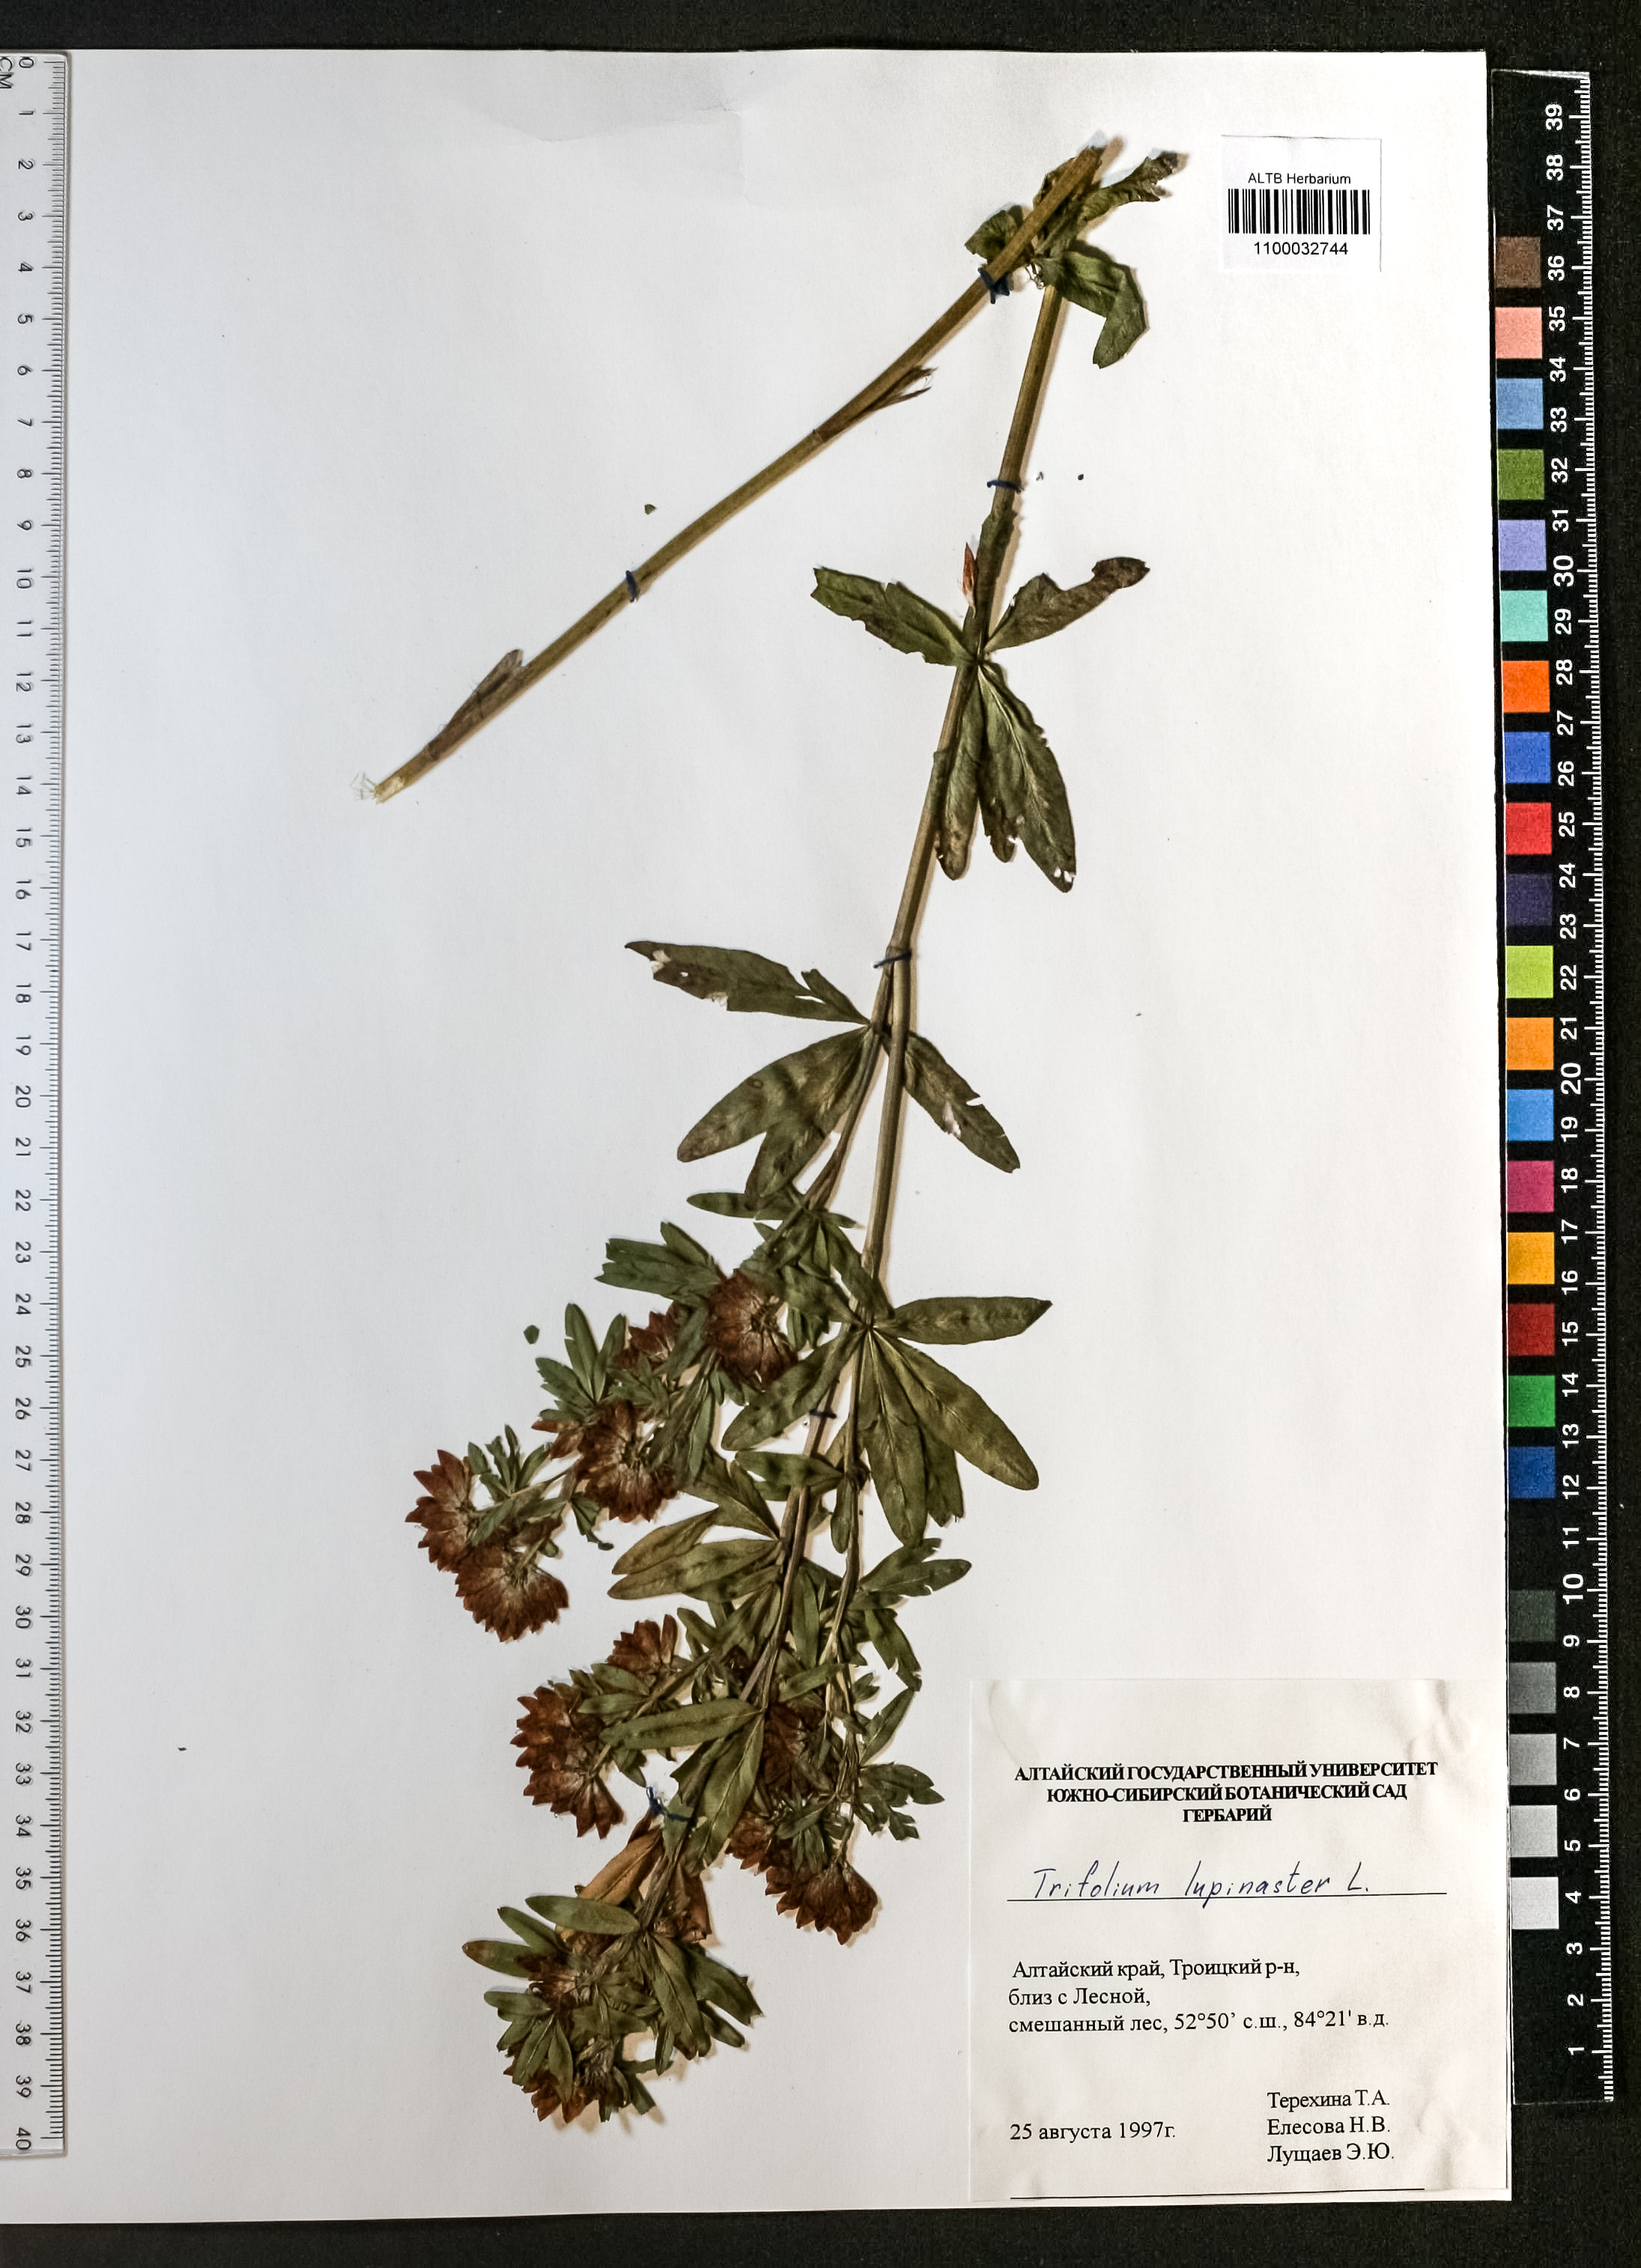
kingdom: Plantae
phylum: Tracheophyta
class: Magnoliopsida
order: Fabales
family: Fabaceae
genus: Trifolium
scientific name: Trifolium lupinaster
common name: Lupine clover
